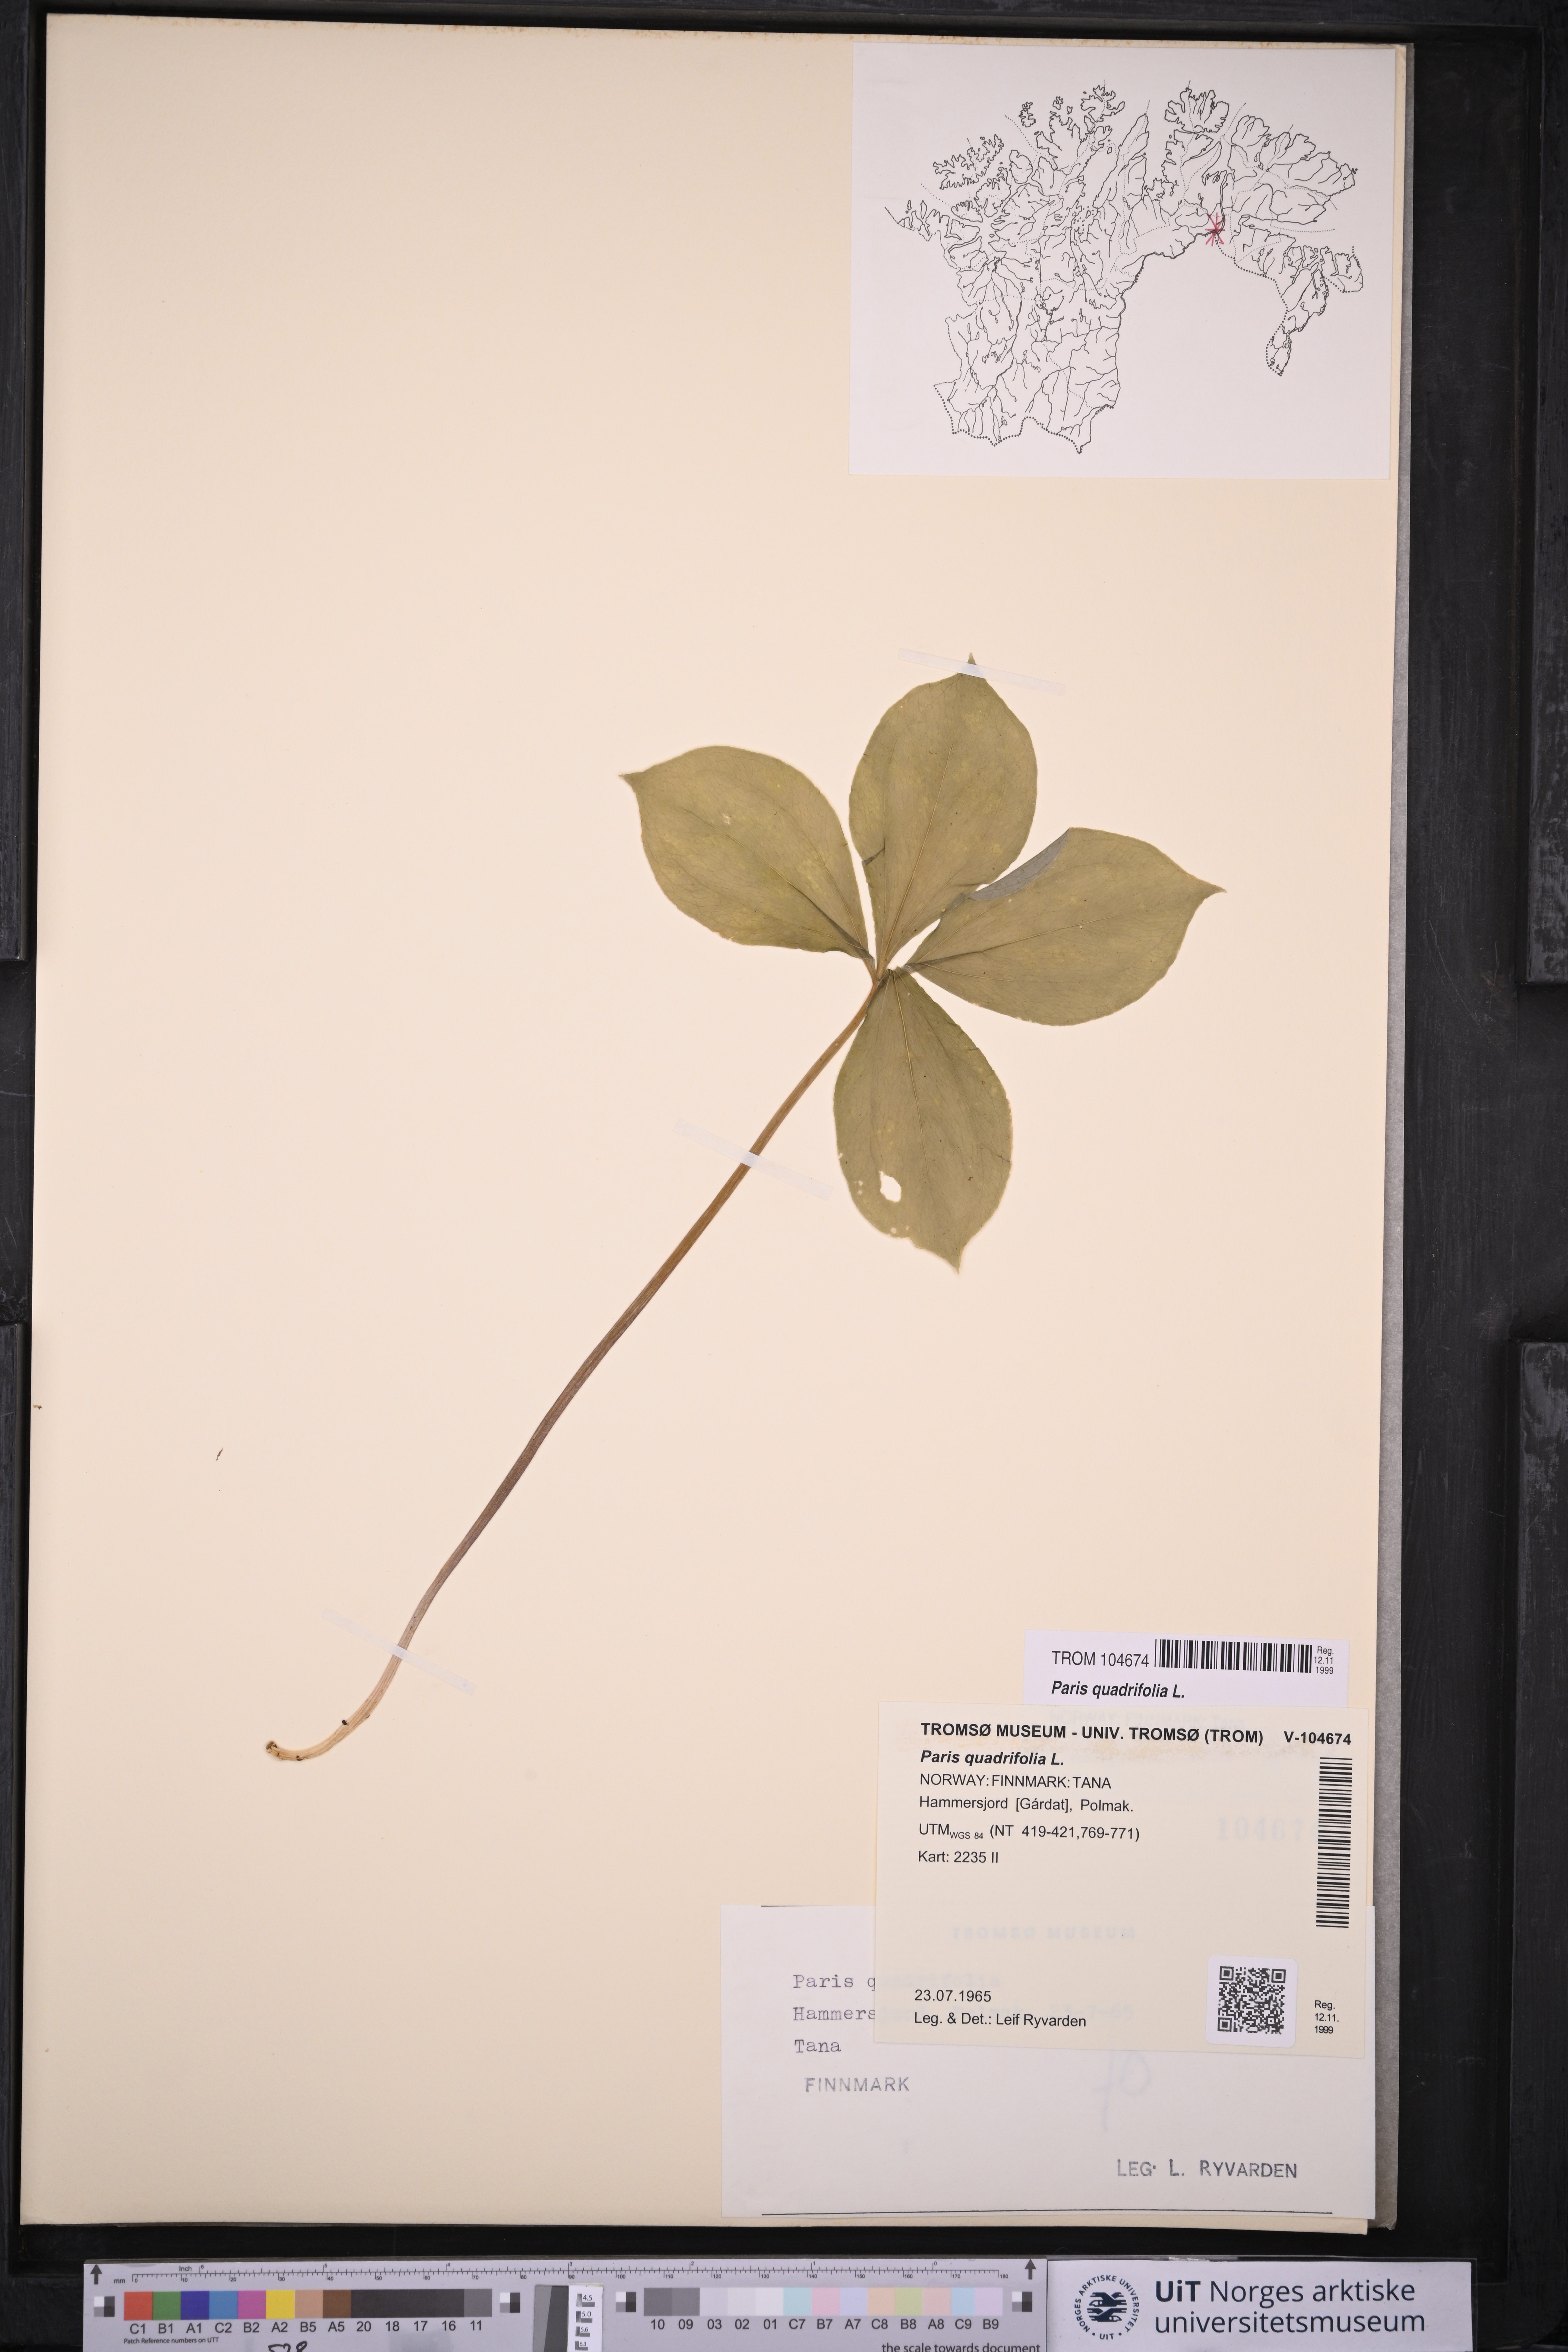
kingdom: Plantae
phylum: Tracheophyta
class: Liliopsida
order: Liliales
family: Melanthiaceae
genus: Paris
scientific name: Paris quadrifolia
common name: Herb-paris
